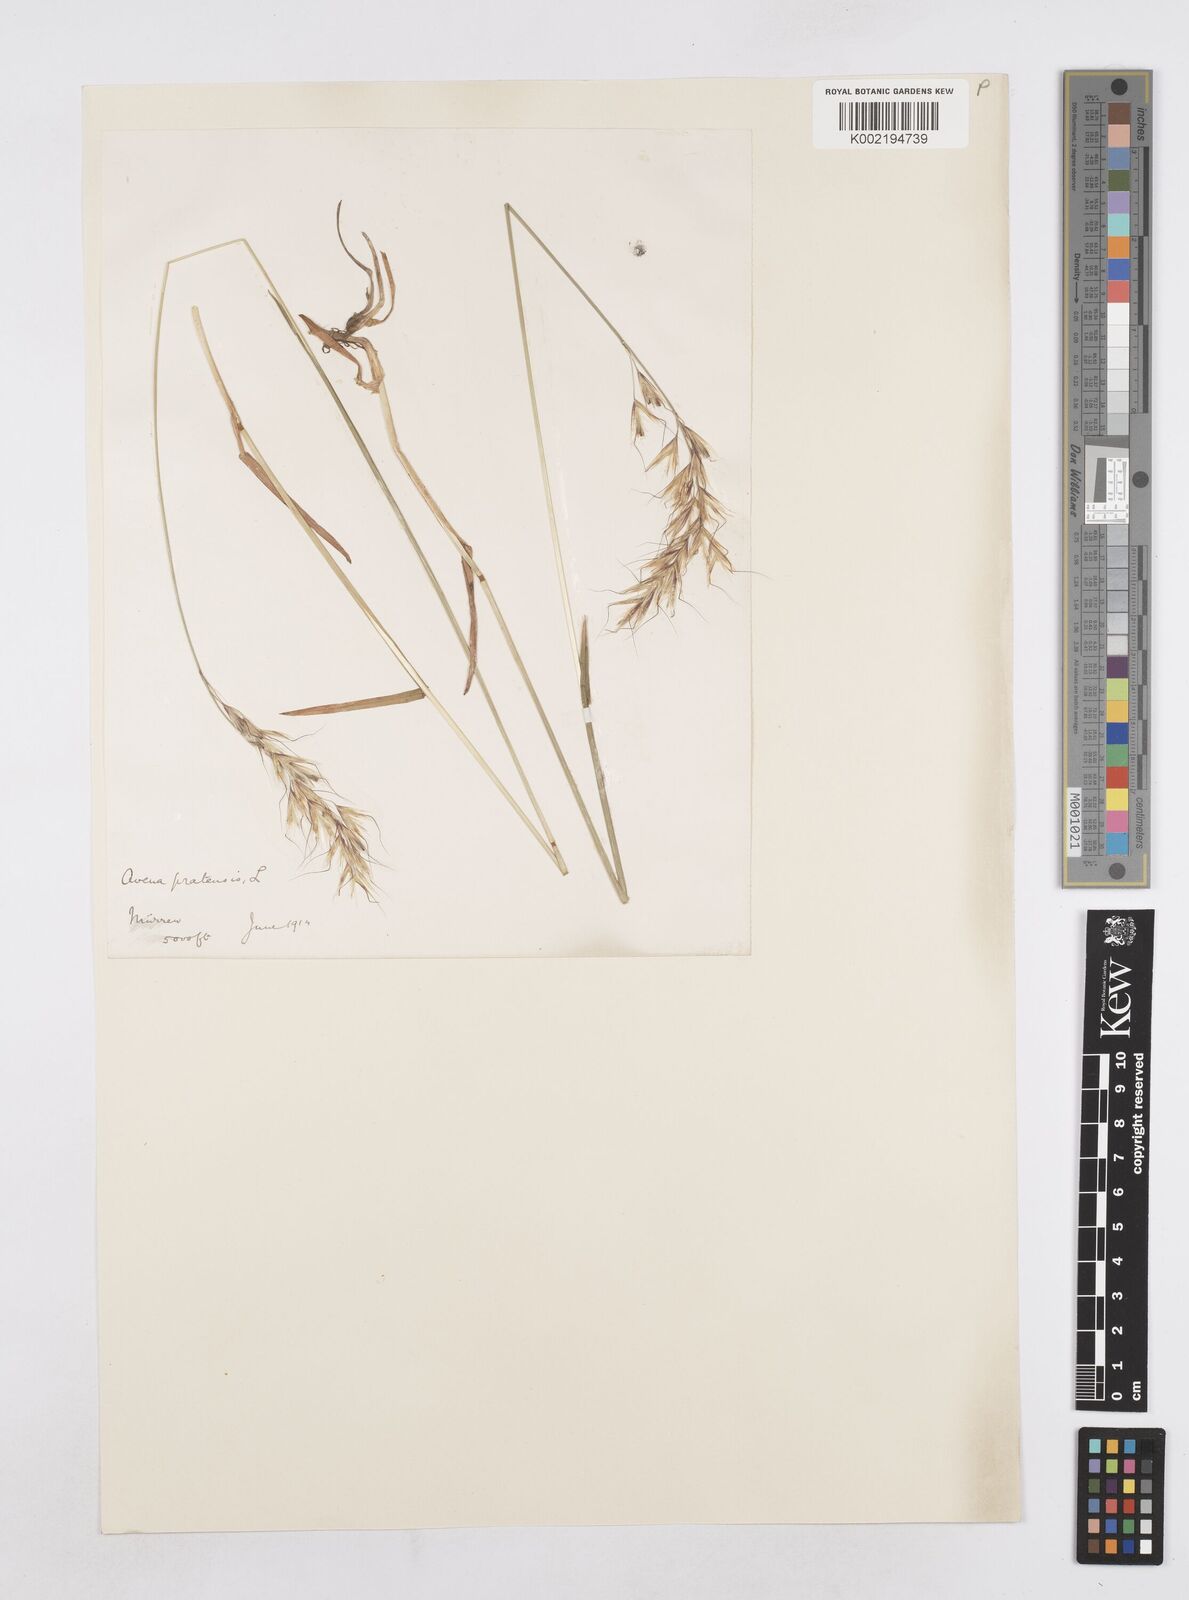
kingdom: Plantae
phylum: Tracheophyta
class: Liliopsida
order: Poales
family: Poaceae
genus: Avenula
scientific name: Avenula pubescens
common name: Downy alpine oatgrass
